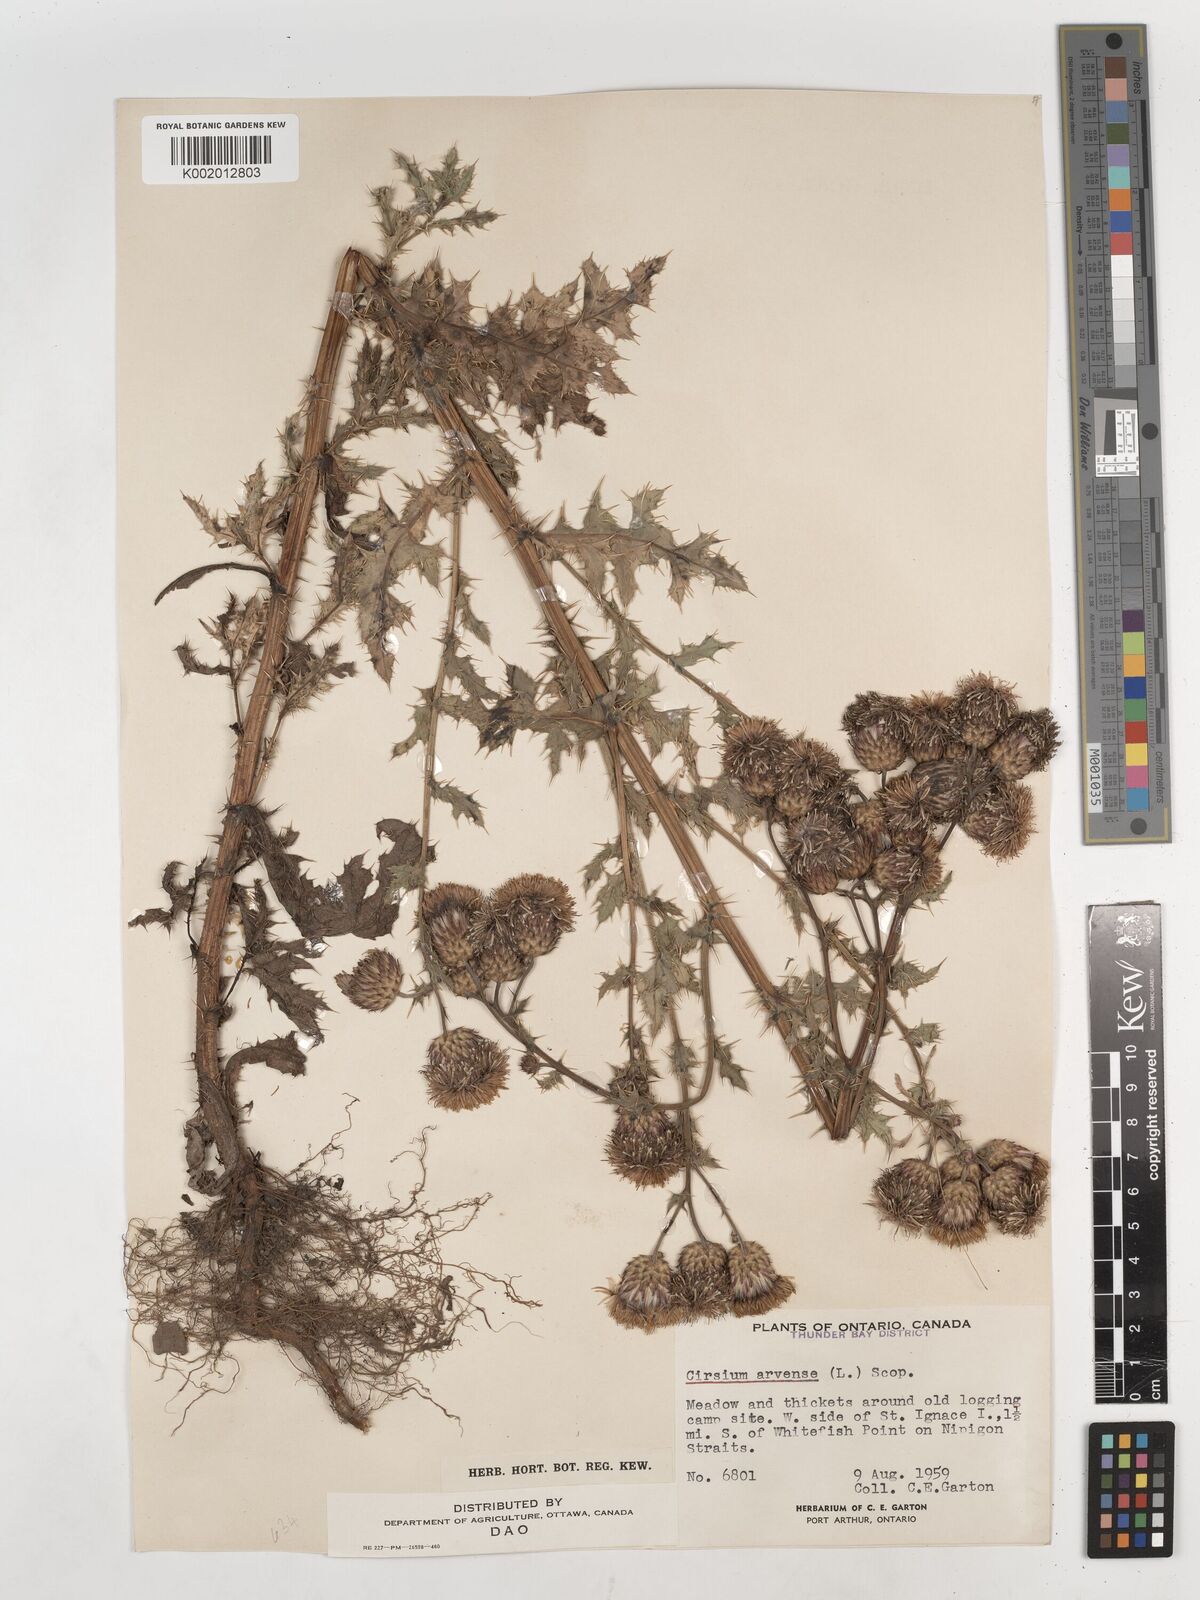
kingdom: Plantae
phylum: Tracheophyta
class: Magnoliopsida
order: Asterales
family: Asteraceae
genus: Cirsium
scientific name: Cirsium arvense
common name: Creeping thistle
